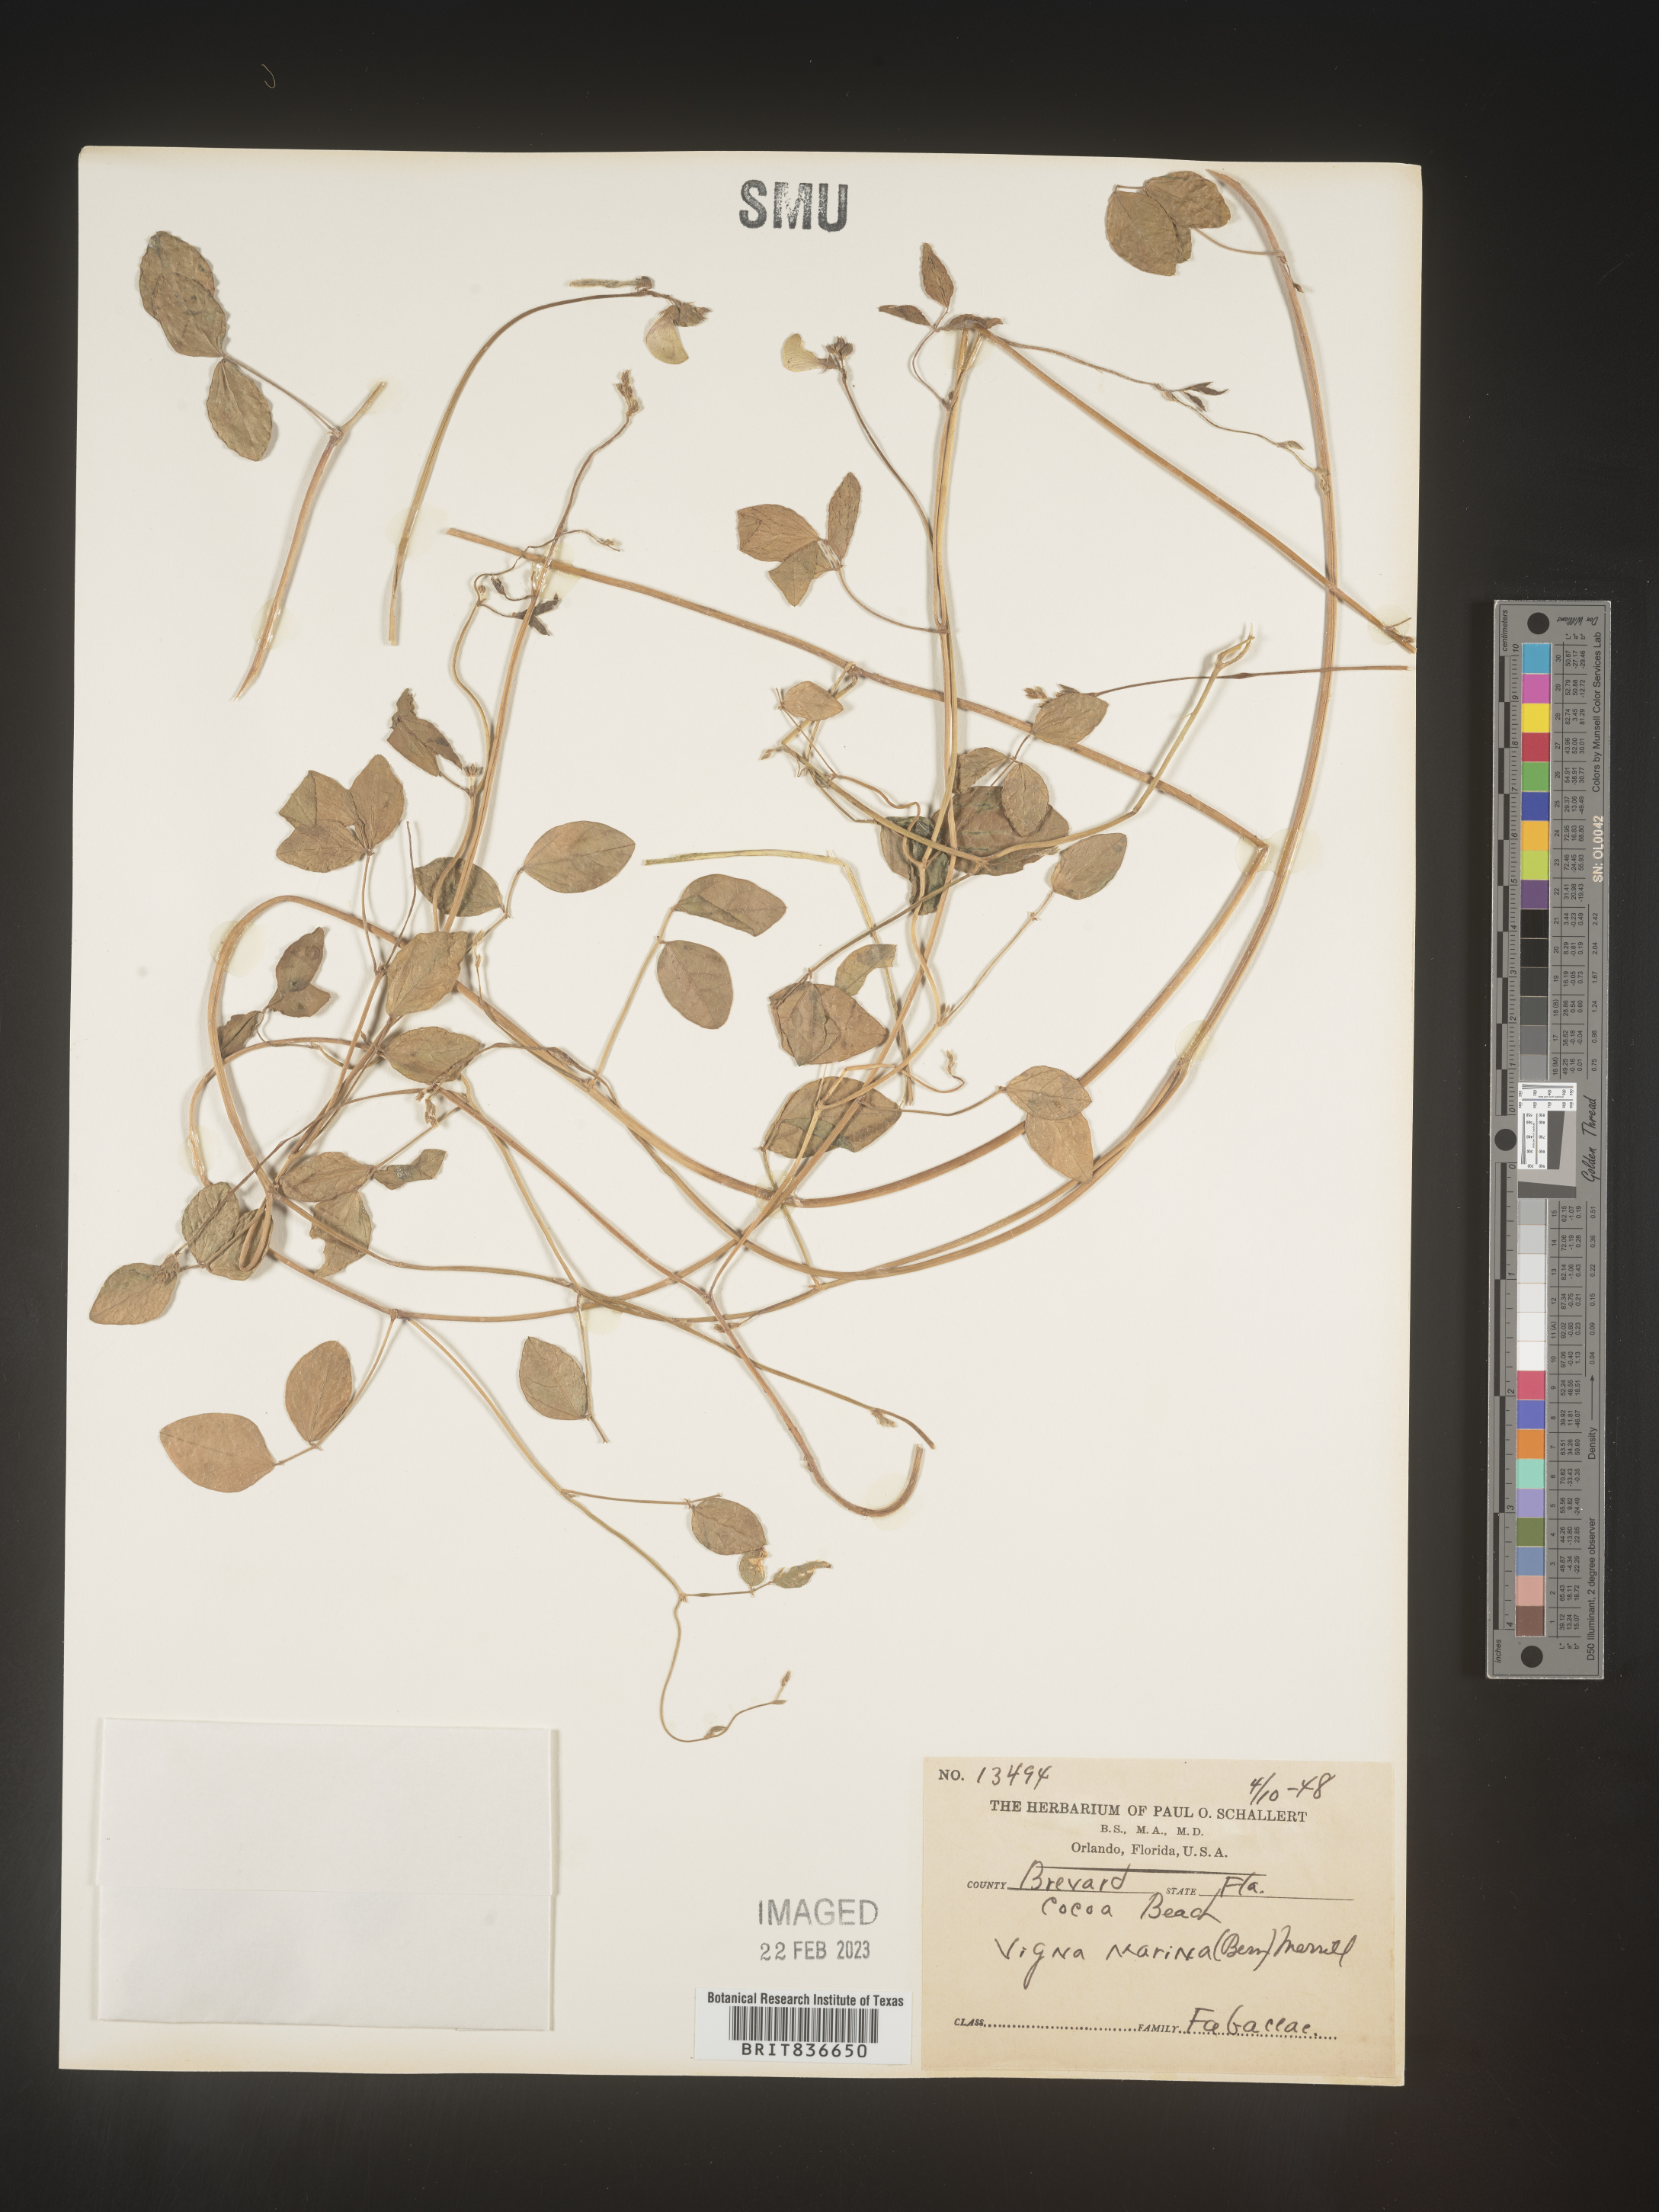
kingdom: Plantae
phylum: Tracheophyta
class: Magnoliopsida
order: Fabales
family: Fabaceae
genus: Vigna
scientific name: Vigna luteola
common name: Hairypod cowpea
